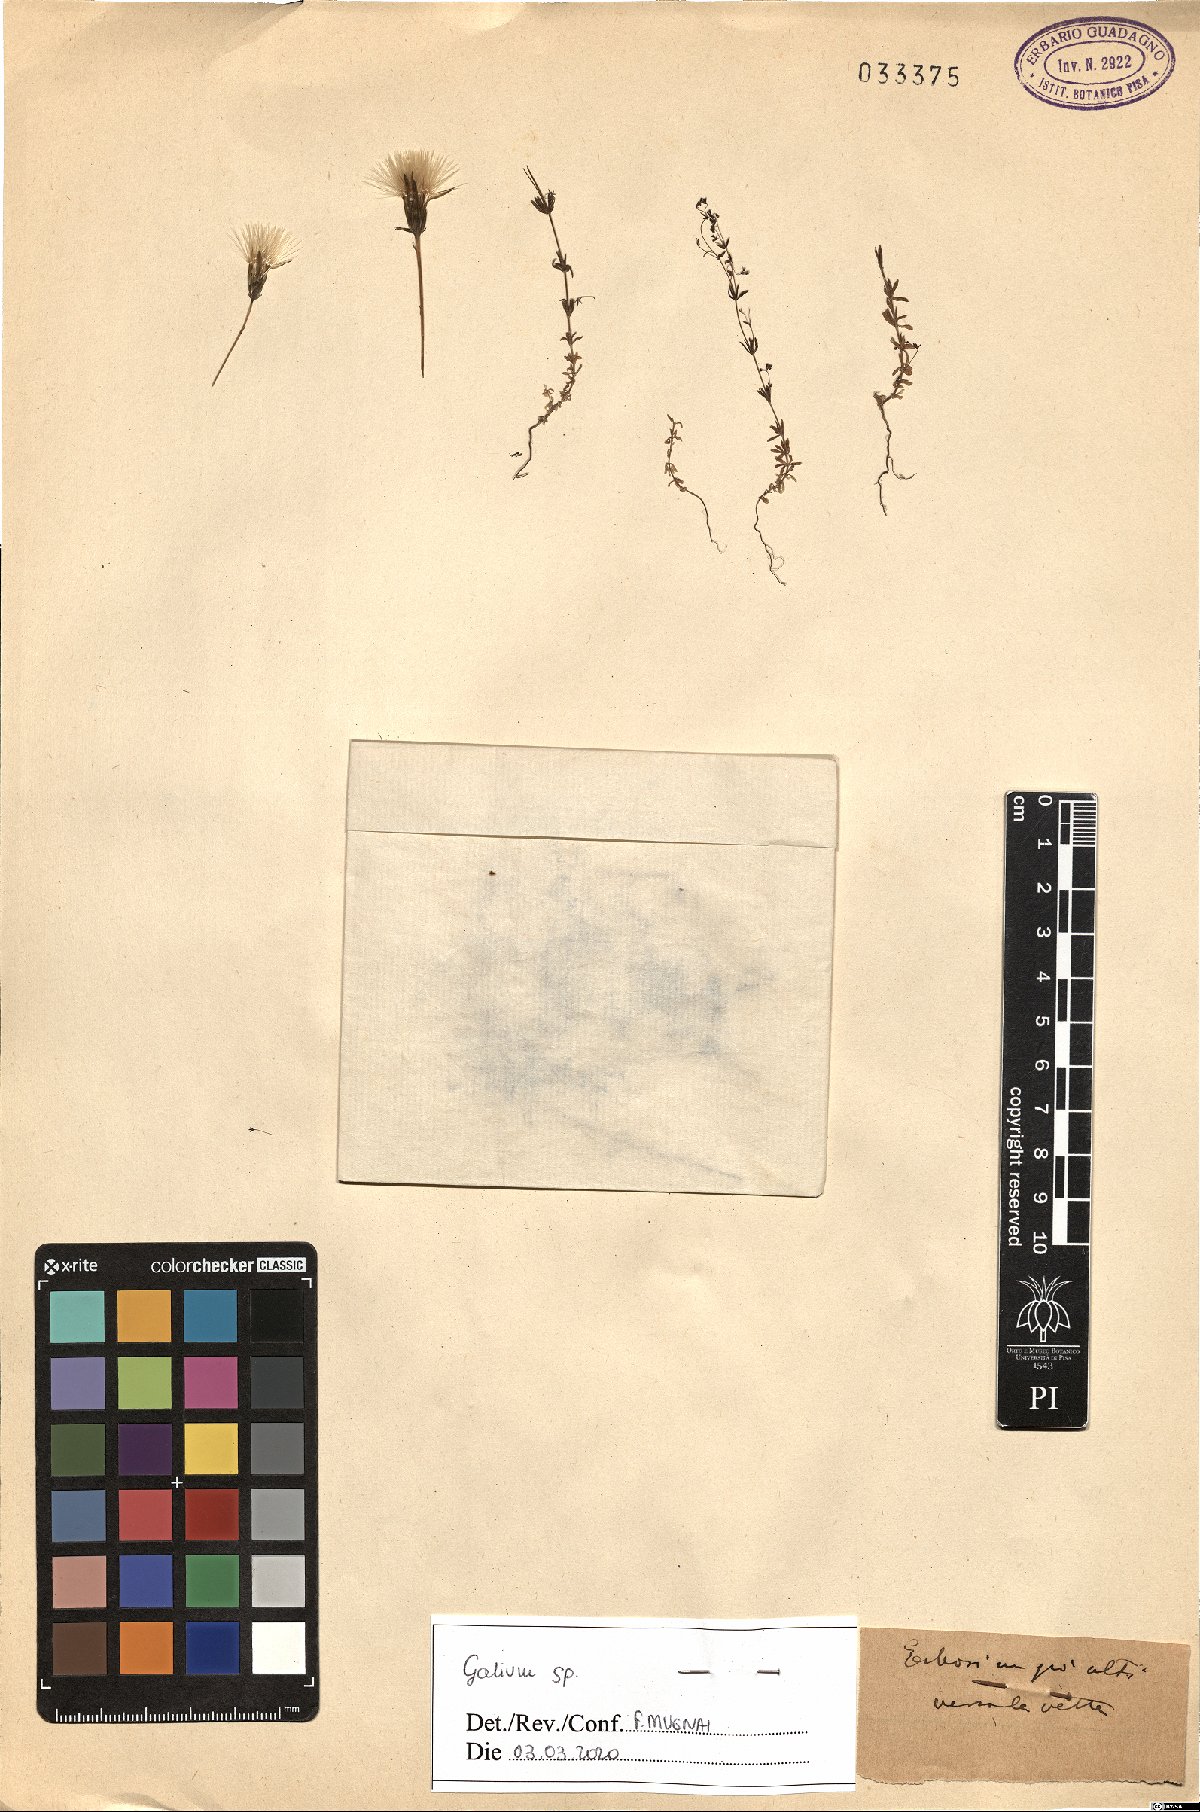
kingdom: Plantae
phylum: Tracheophyta
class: Magnoliopsida
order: Gentianales
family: Rubiaceae
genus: Galium
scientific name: Galium
